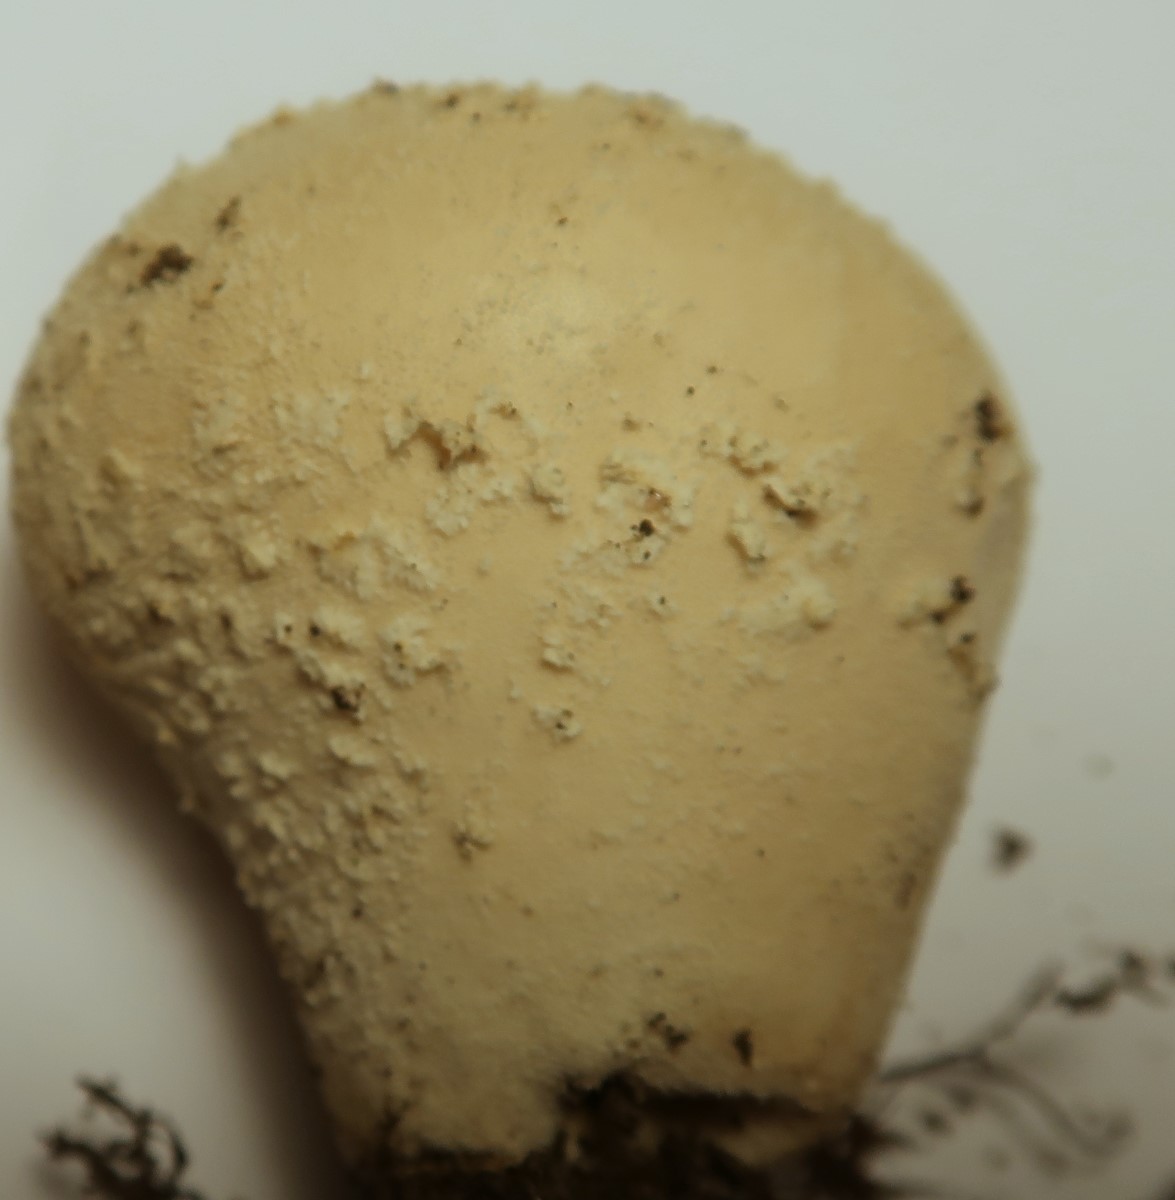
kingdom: Fungi
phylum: Basidiomycota
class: Agaricomycetes
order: Agaricales
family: Lycoperdaceae
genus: Lycoperdon
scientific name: Lycoperdon mammiforme
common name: rosa støvbold
